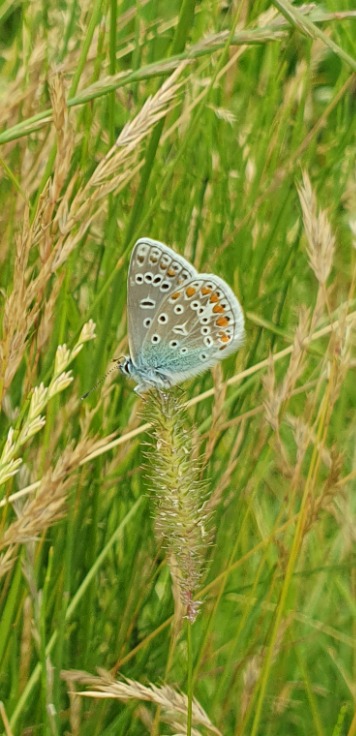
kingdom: Animalia
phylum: Arthropoda
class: Insecta
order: Lepidoptera
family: Lycaenidae
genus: Polyommatus
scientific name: Polyommatus icarus
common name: Almindelig blåfugl
